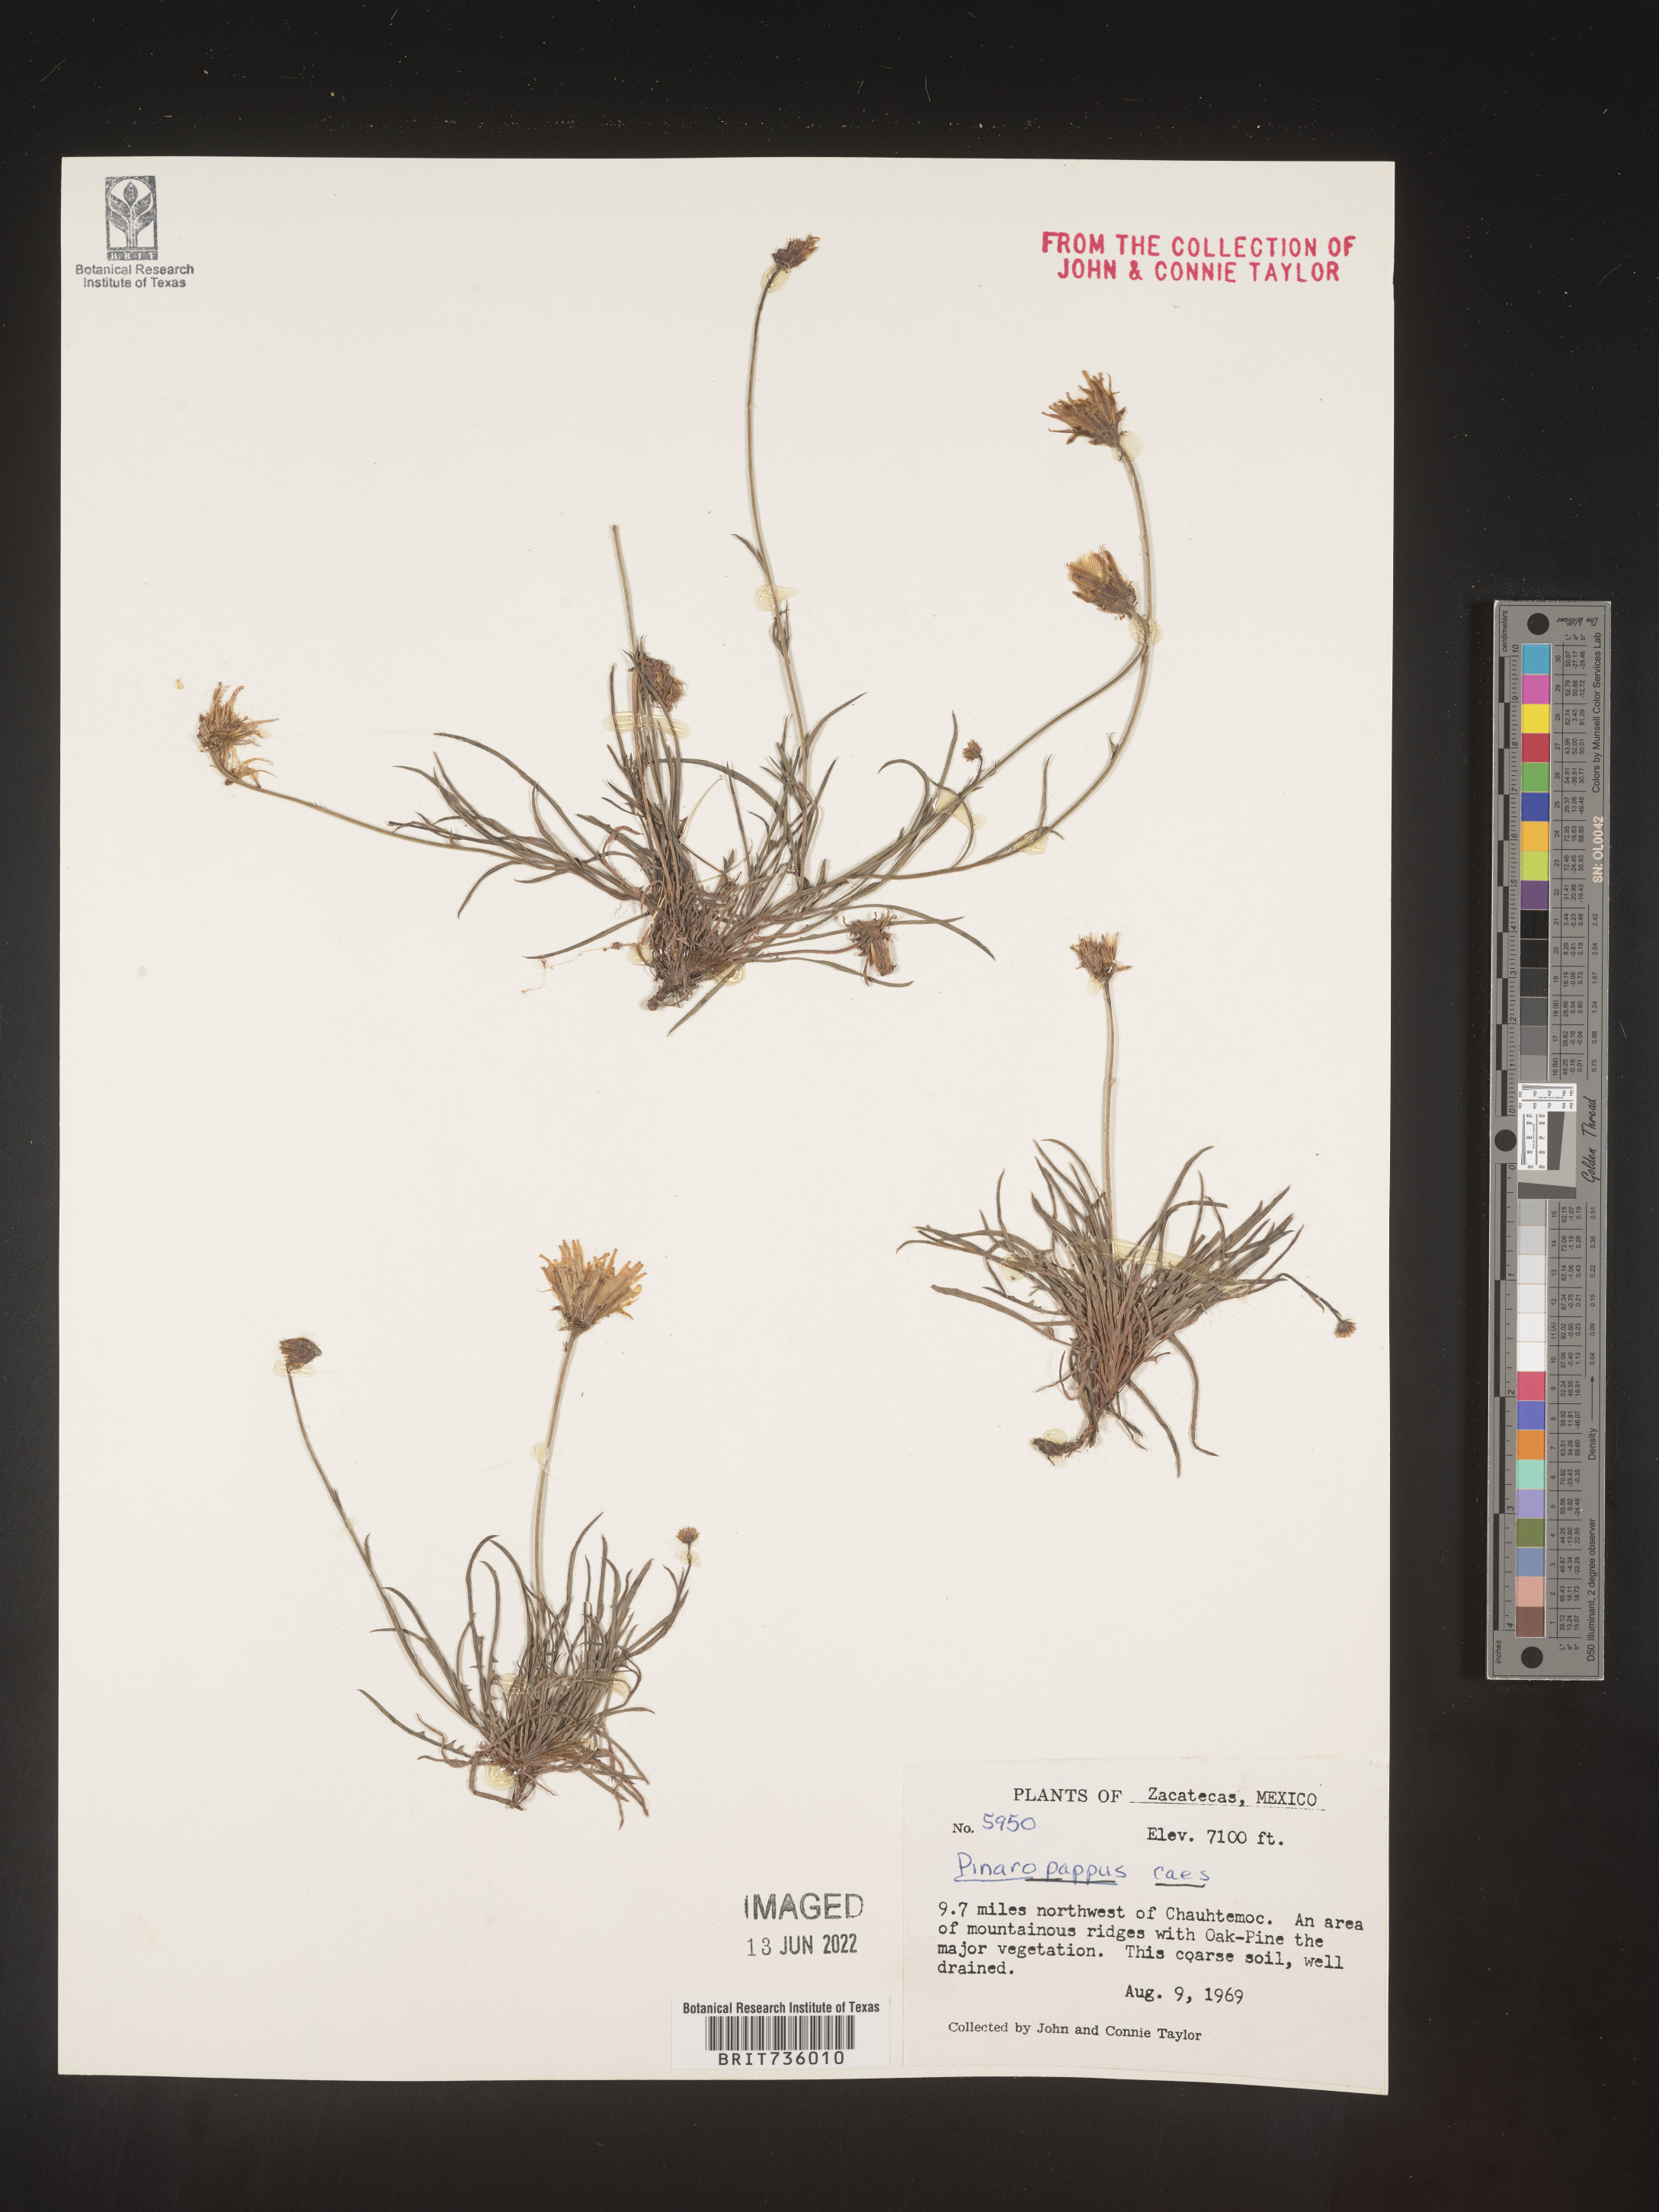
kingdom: Plantae
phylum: Tracheophyta
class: Magnoliopsida
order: Asterales
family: Asteraceae
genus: Pinaropappus
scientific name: Pinaropappus
